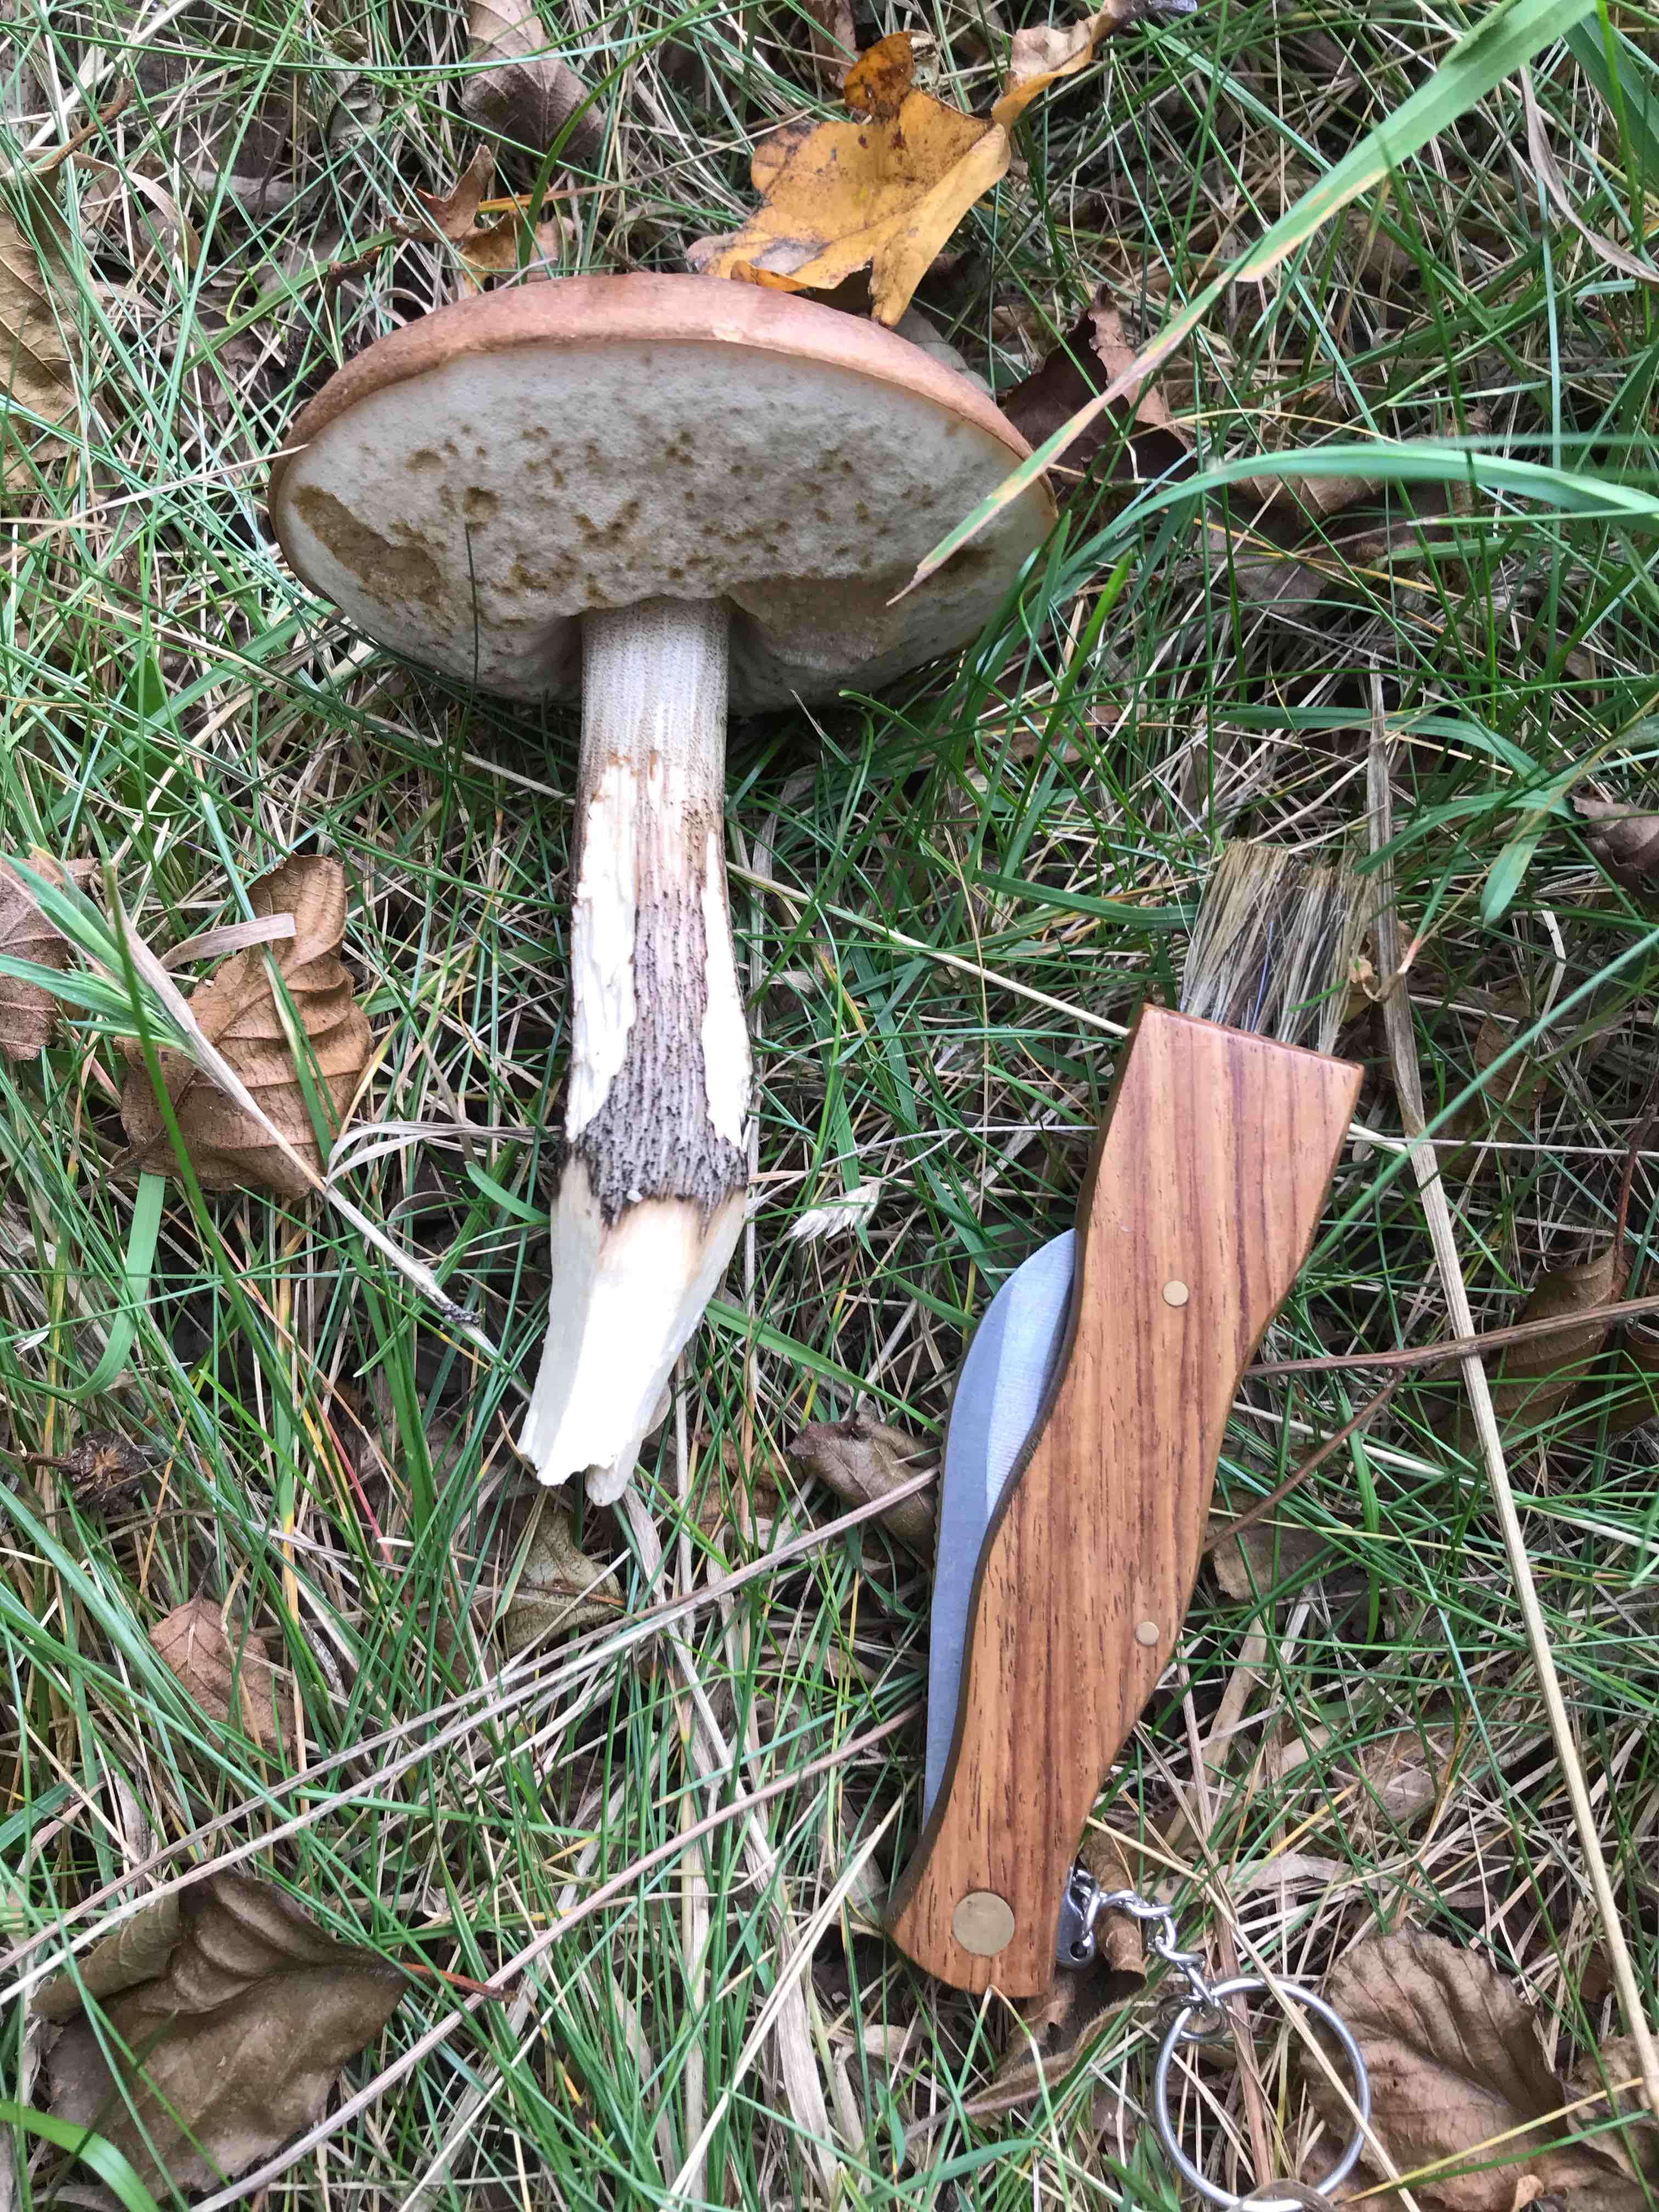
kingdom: Fungi
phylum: Basidiomycota
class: Agaricomycetes
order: Boletales
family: Boletaceae
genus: Leccinum
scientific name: Leccinum scabrum
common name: brun skælrørhat
